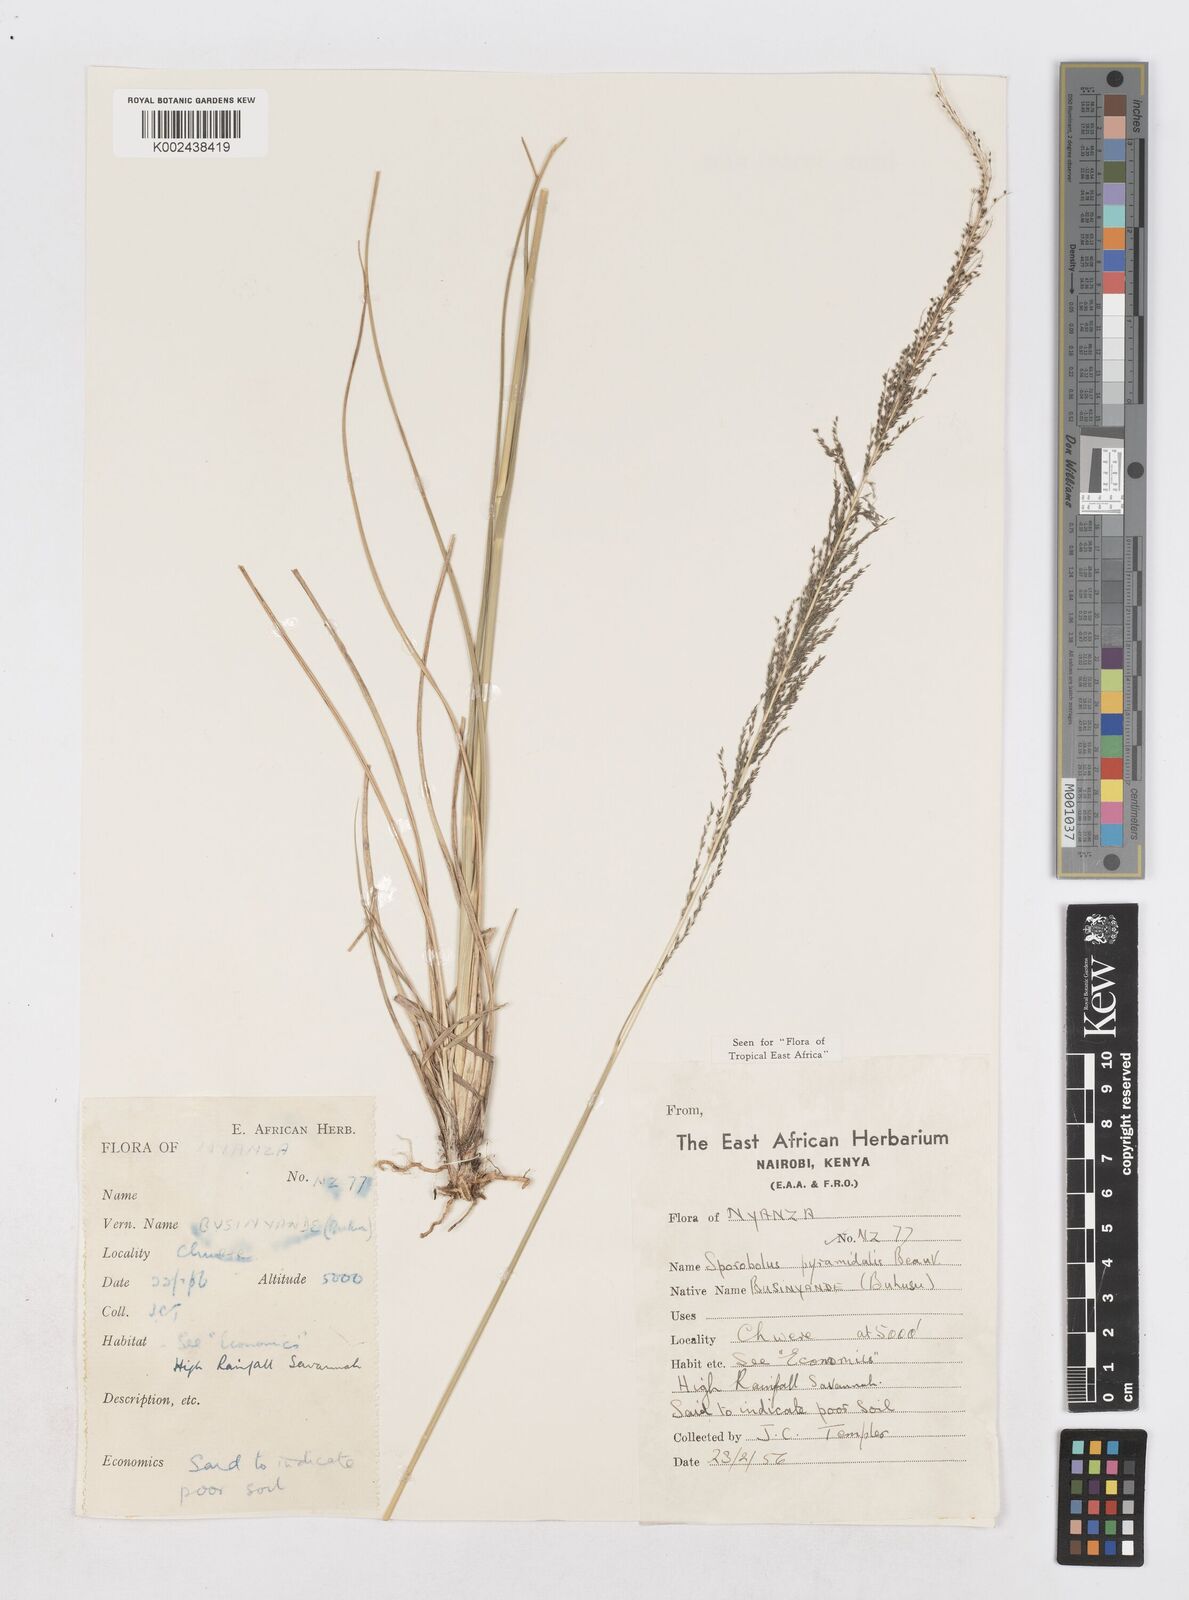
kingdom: Plantae
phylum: Tracheophyta
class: Liliopsida
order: Poales
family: Poaceae
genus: Sporobolus
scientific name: Sporobolus pyramidalis
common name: West indian dropseed
